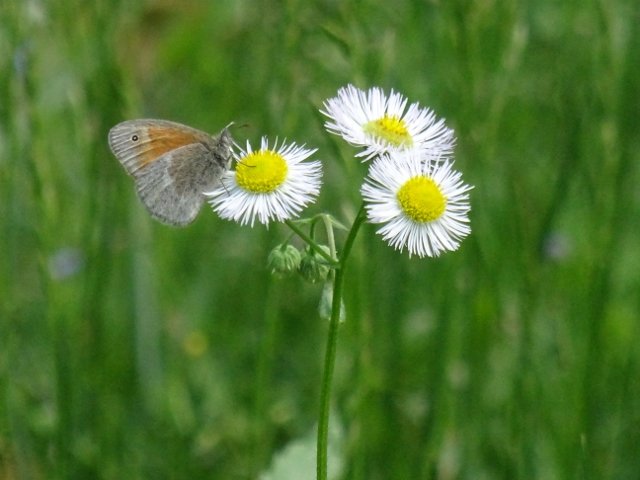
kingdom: Animalia
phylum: Arthropoda
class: Insecta
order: Lepidoptera
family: Nymphalidae
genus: Coenonympha
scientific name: Coenonympha tullia
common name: Large Heath
